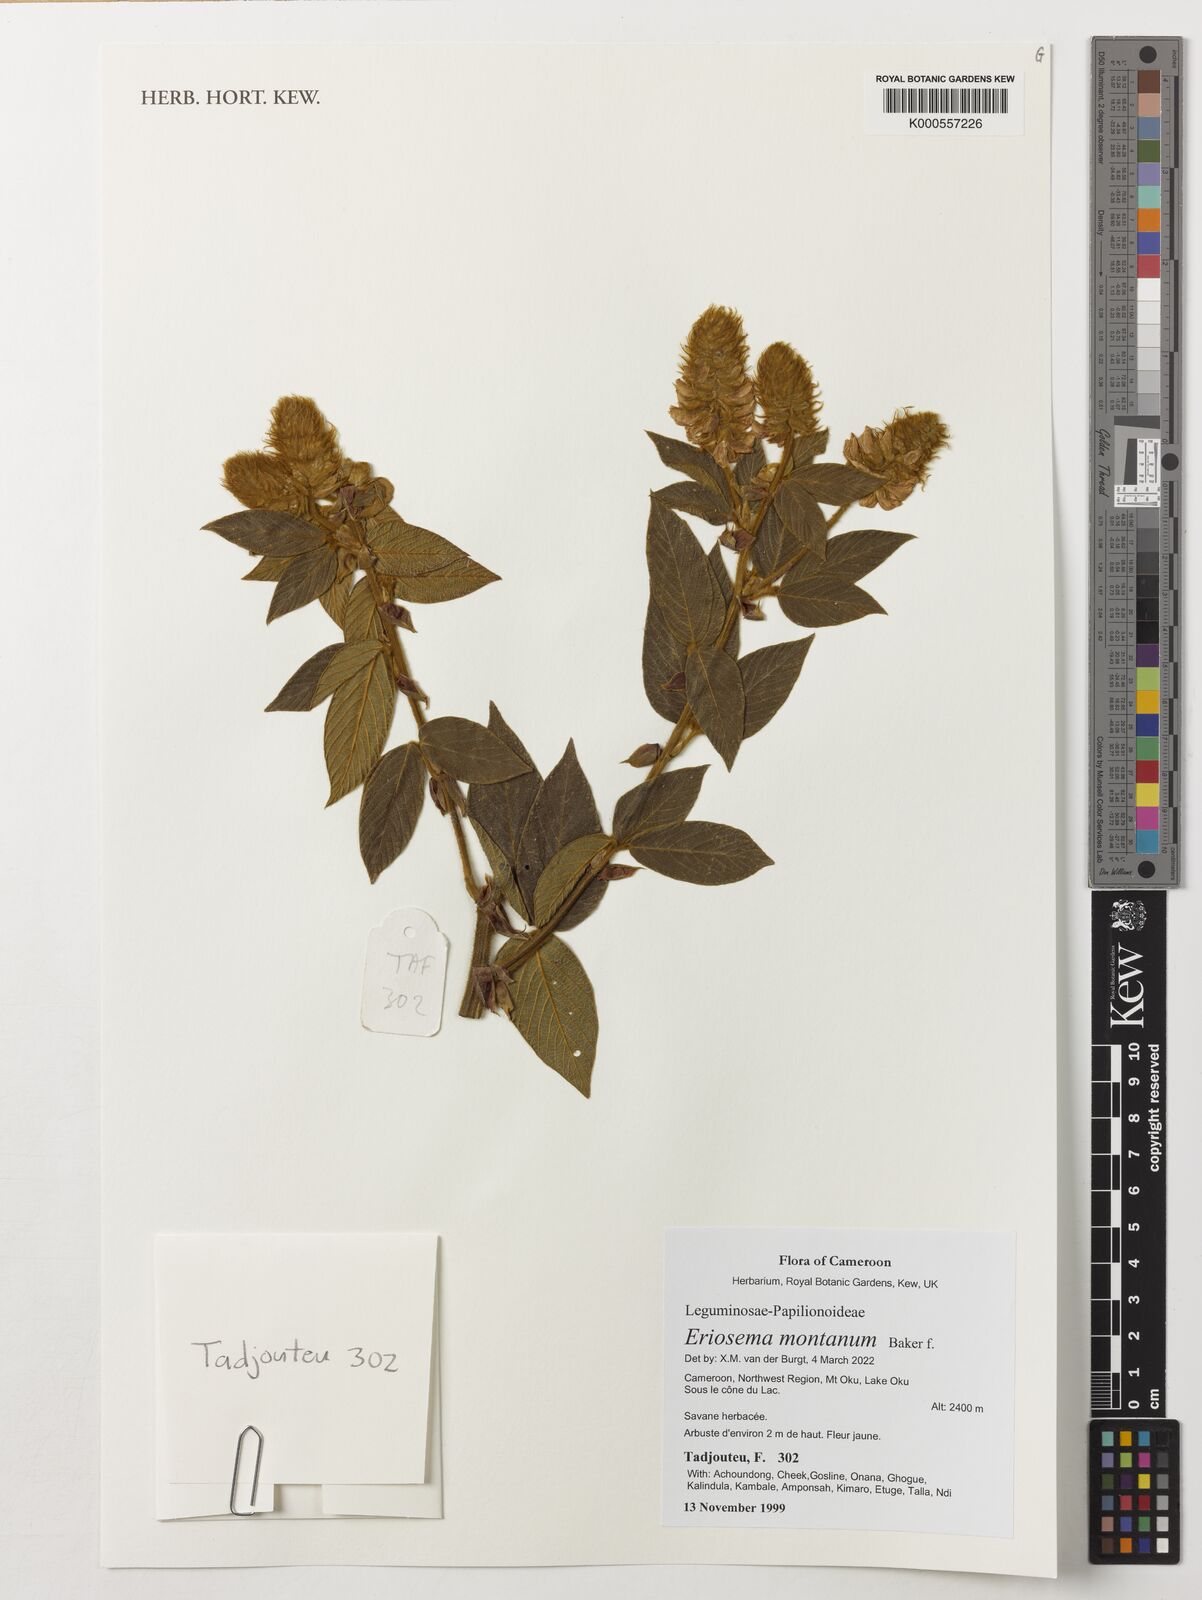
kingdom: Plantae
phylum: Tracheophyta
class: Magnoliopsida
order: Fabales
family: Fabaceae
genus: Eriosema
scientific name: Eriosema montanum
